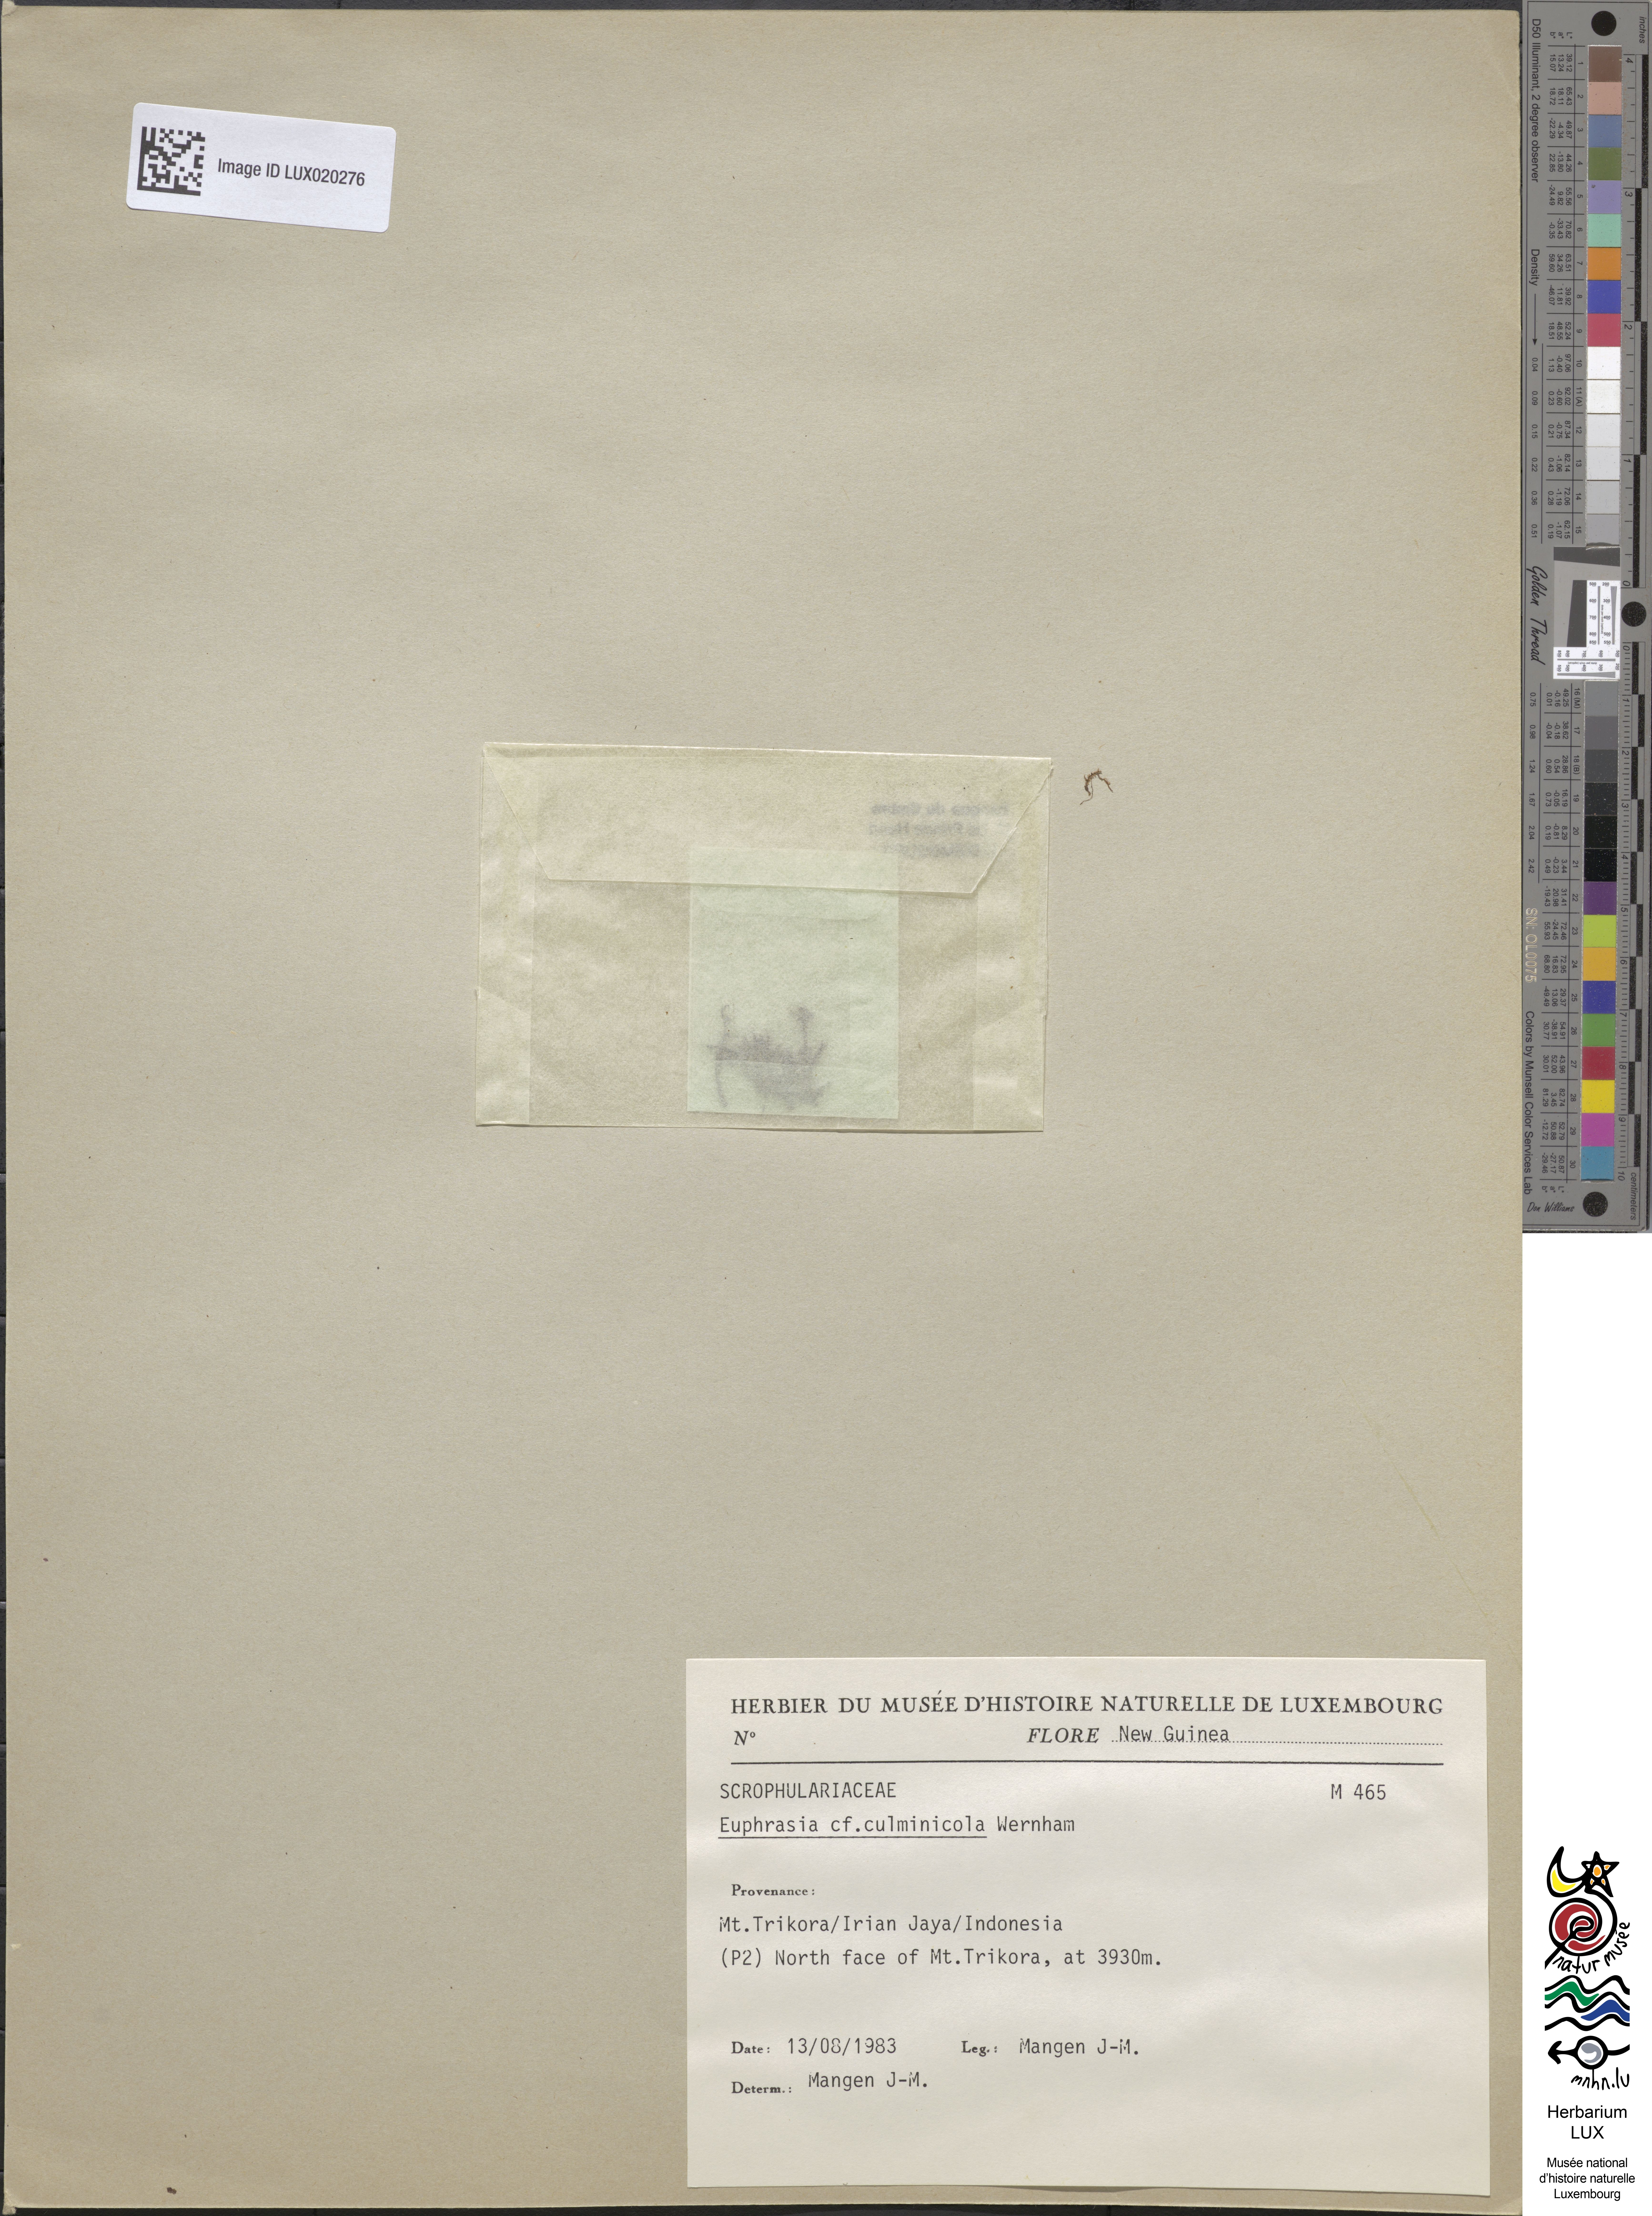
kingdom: Plantae
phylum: Tracheophyta
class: Magnoliopsida
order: Lamiales
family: Orobanchaceae
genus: Euphrasia
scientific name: Euphrasia culminicola
